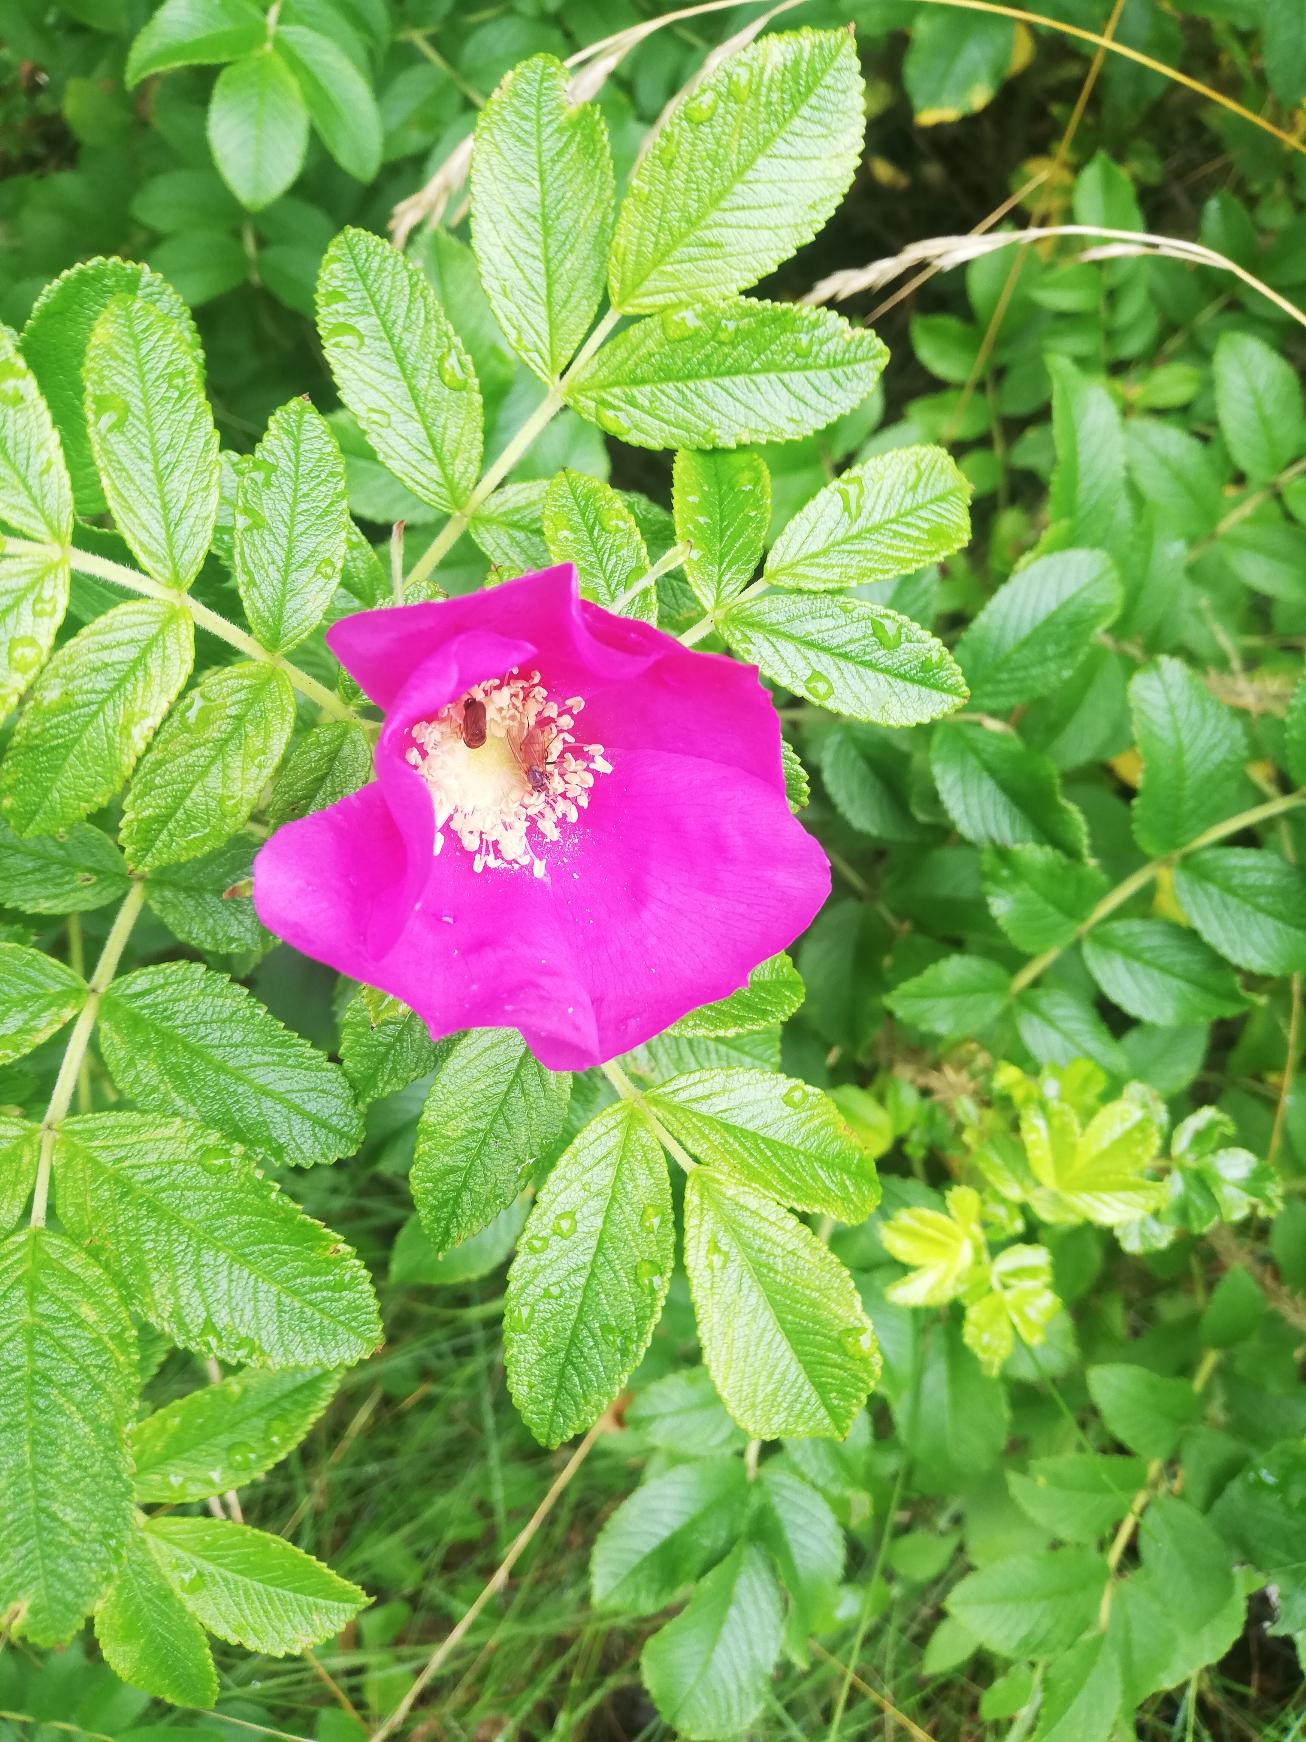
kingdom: Plantae
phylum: Tracheophyta
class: Magnoliopsida
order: Rosales
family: Rosaceae
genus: Rosa
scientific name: Rosa rugosa
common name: Rynket rose
